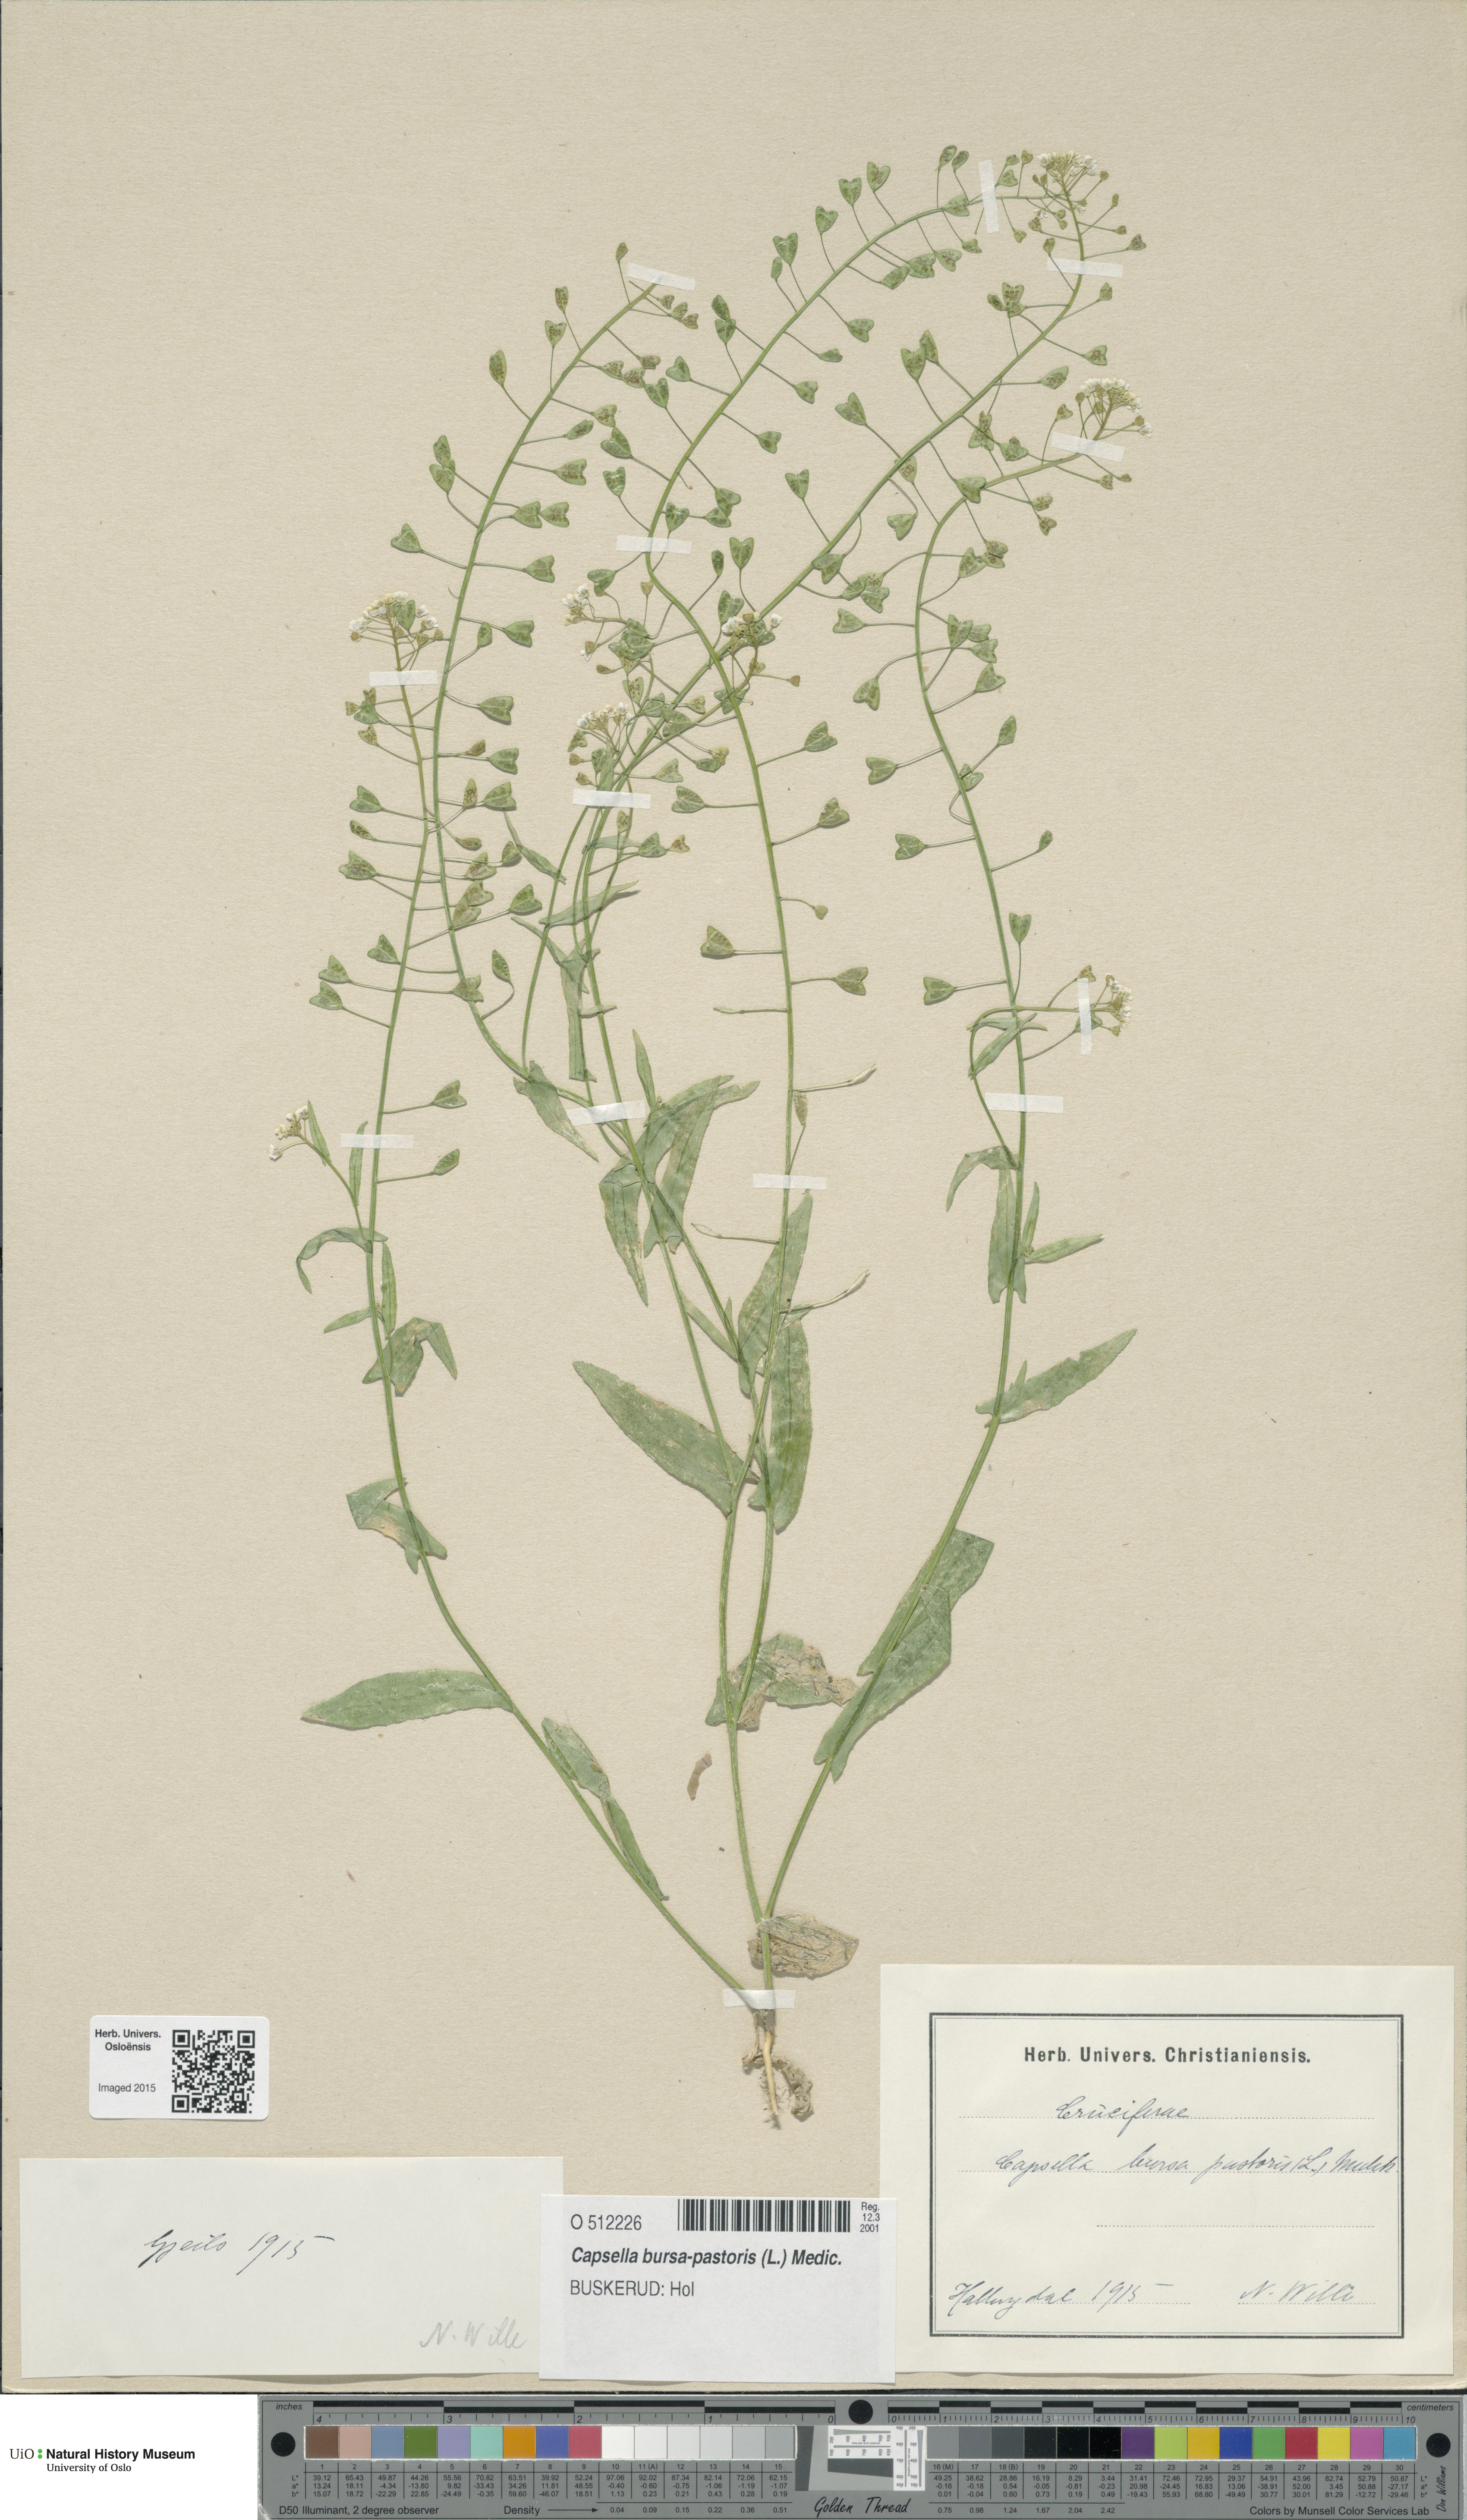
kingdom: Plantae
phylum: Tracheophyta
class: Magnoliopsida
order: Brassicales
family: Brassicaceae
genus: Capsella
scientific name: Capsella bursa-pastoris
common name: Shepherd's purse
